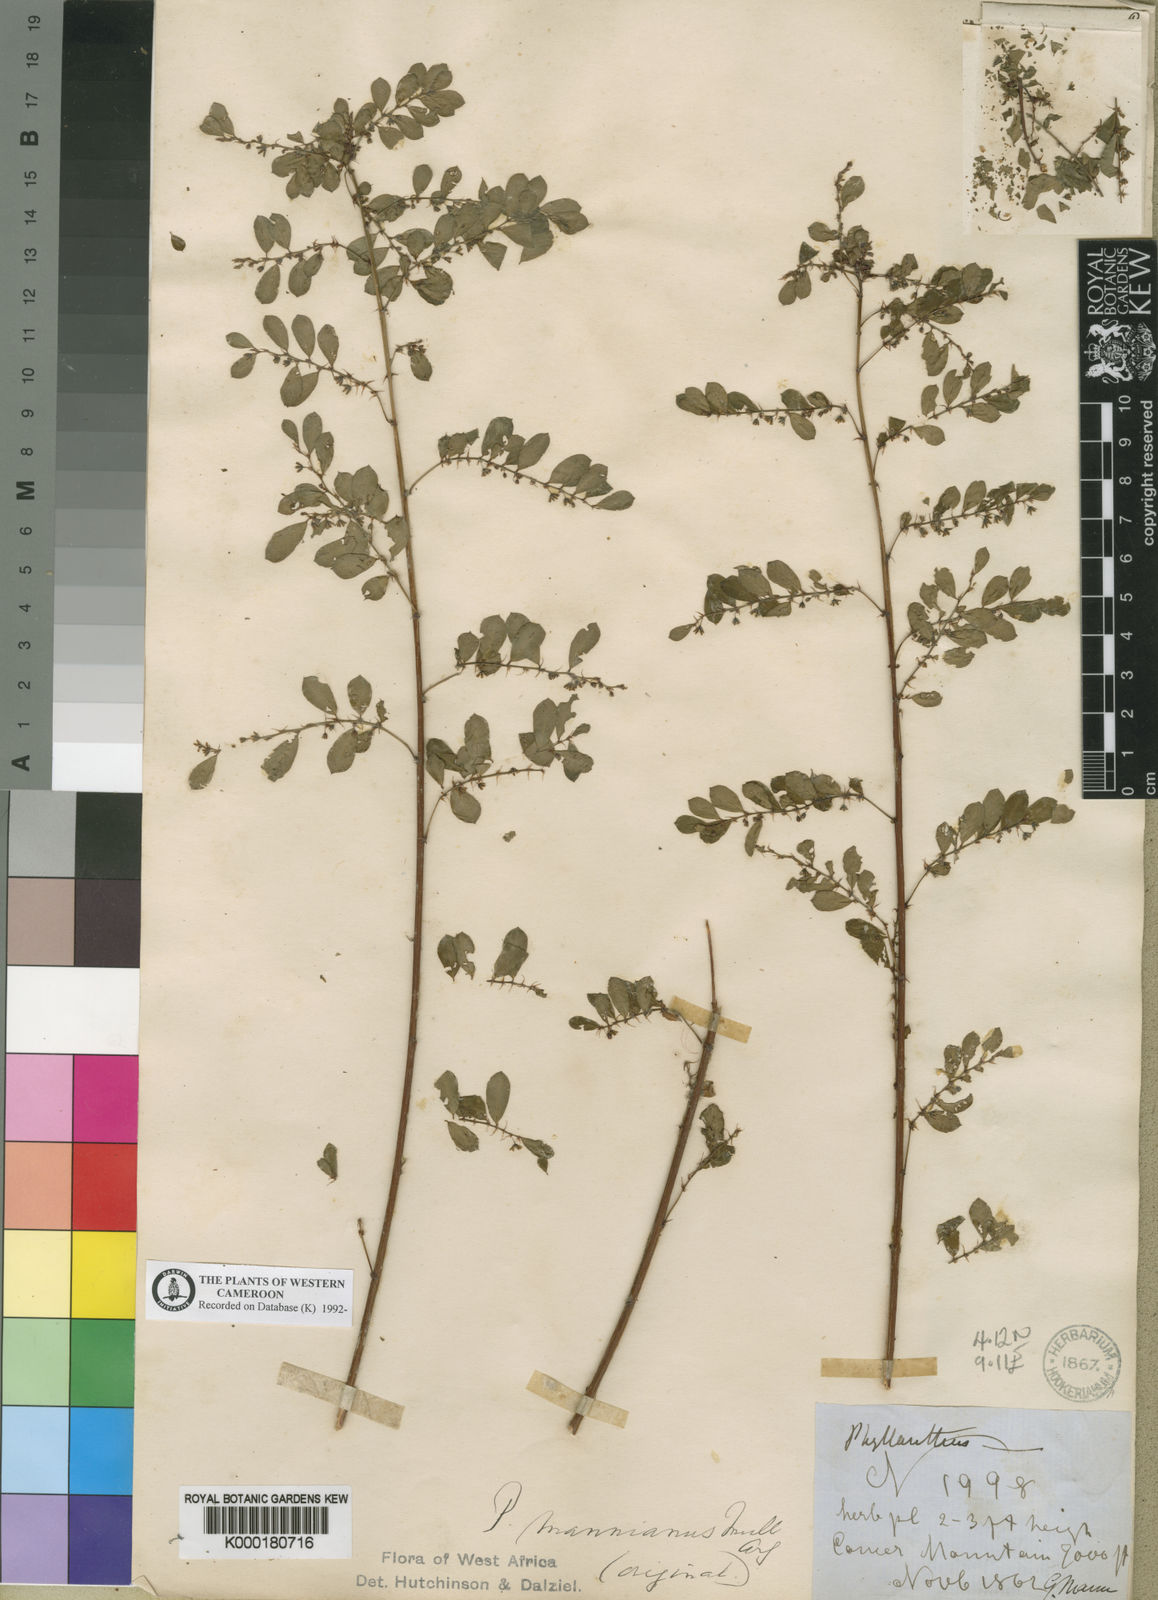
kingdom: Plantae
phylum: Tracheophyta
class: Magnoliopsida
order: Malpighiales
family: Phyllanthaceae
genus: Phyllanthus
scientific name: Phyllanthus
